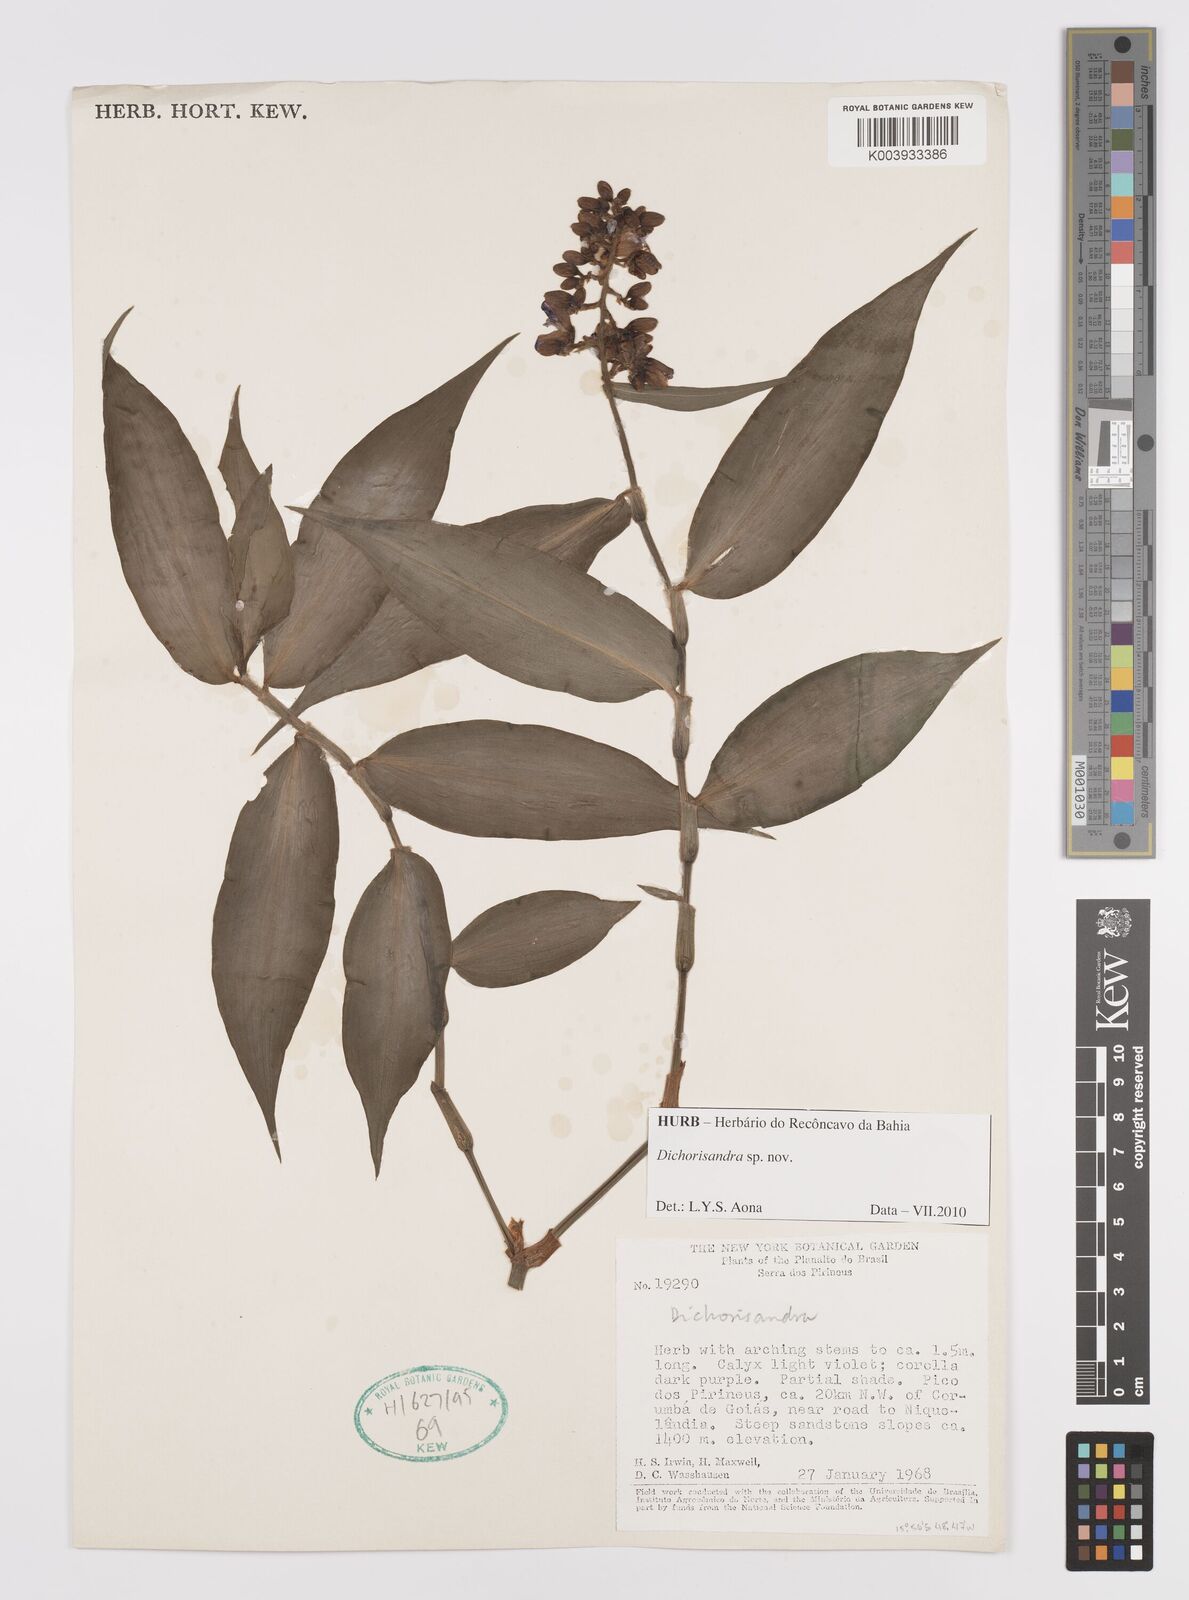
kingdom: Plantae
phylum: Tracheophyta
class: Liliopsida
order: Commelinales
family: Commelinaceae
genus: Dichorisandra
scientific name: Dichorisandra
